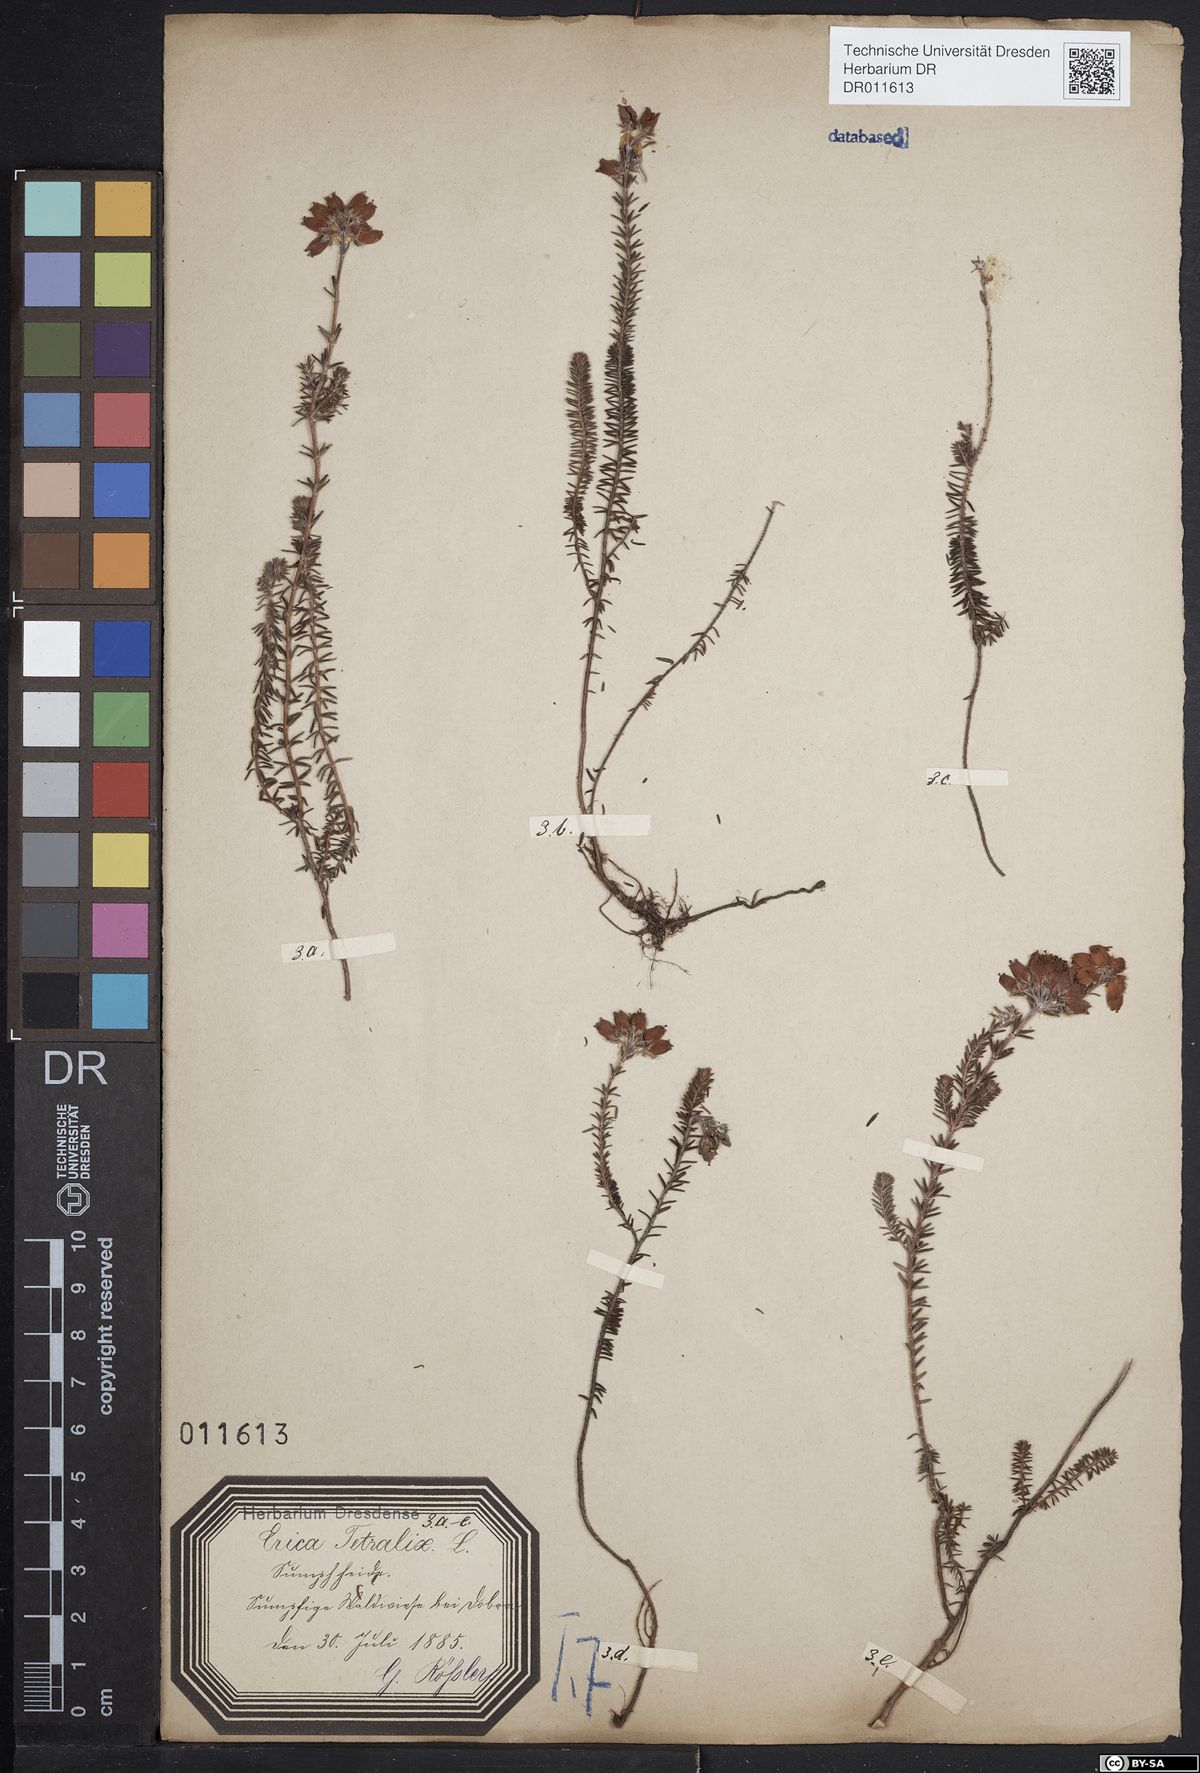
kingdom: Plantae
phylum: Tracheophyta
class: Magnoliopsida
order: Ericales
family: Ericaceae
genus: Erica
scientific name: Erica tetralix
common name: Cross-leaved heath
